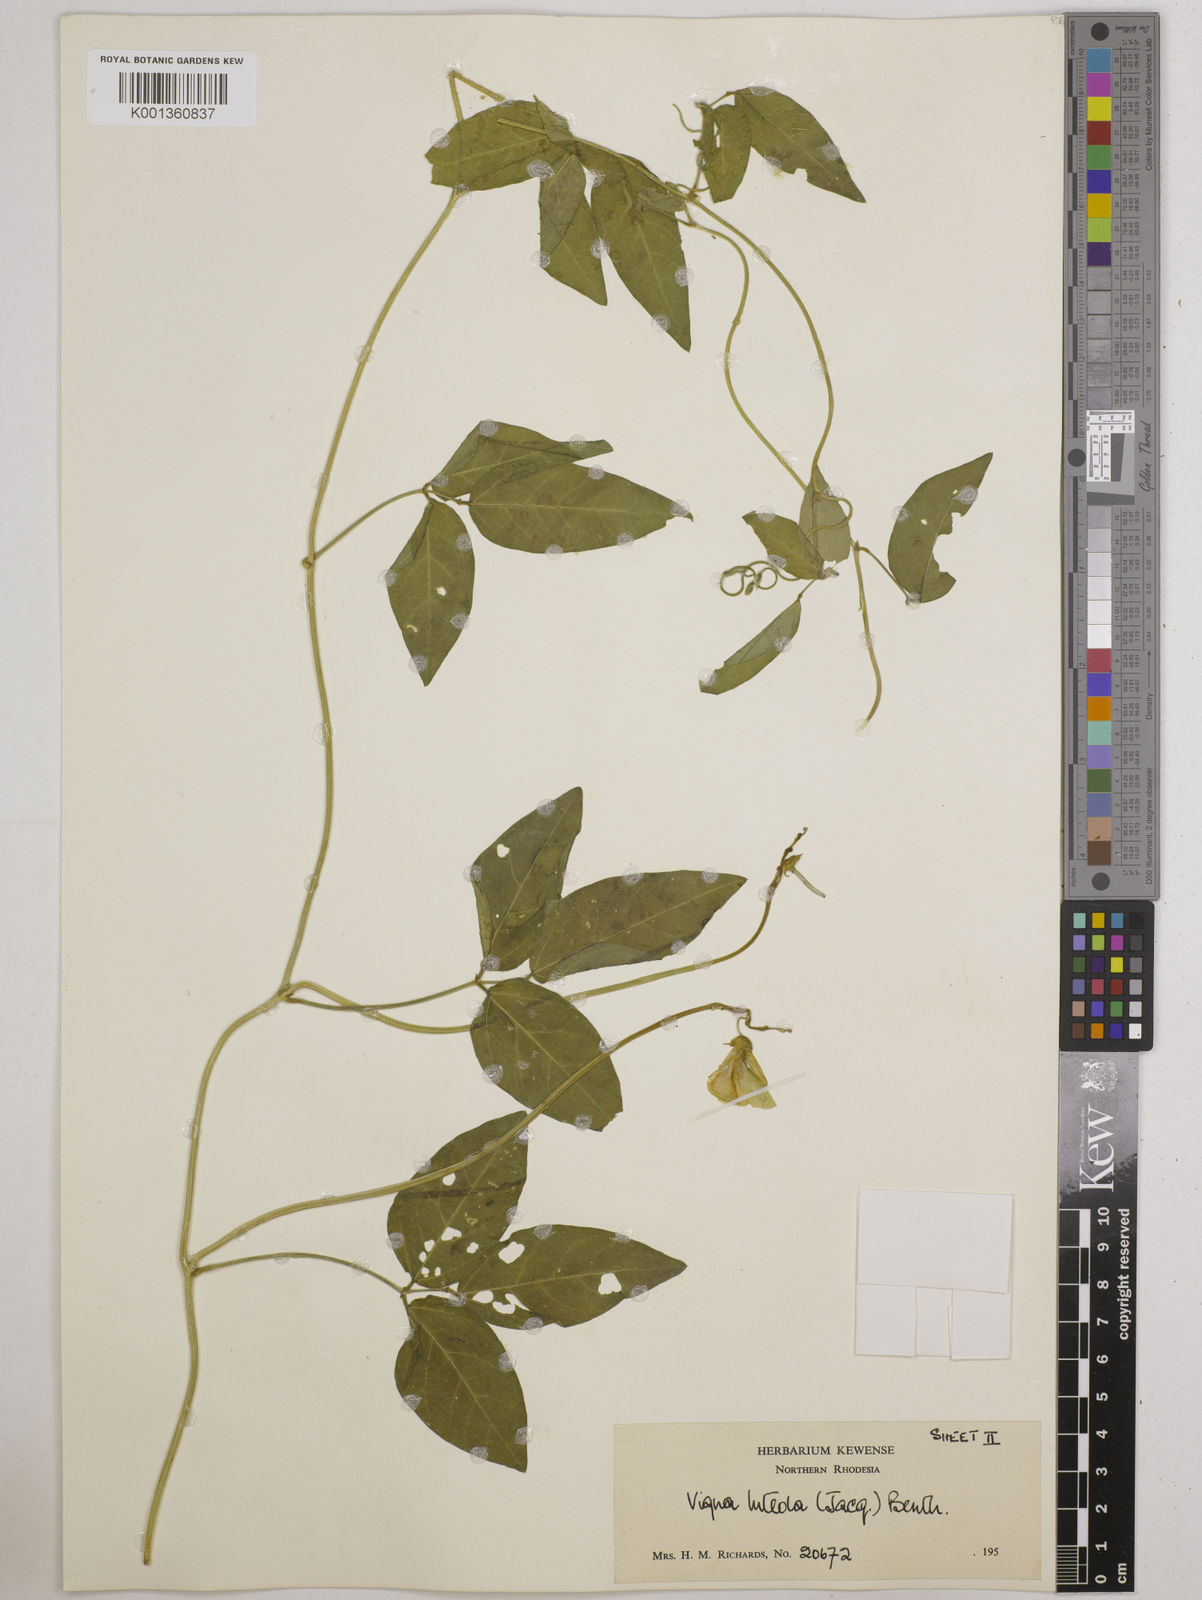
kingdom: Plantae
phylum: Tracheophyta
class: Magnoliopsida
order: Fabales
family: Fabaceae
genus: Vigna
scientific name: Vigna luteola
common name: Hairypod cowpea
